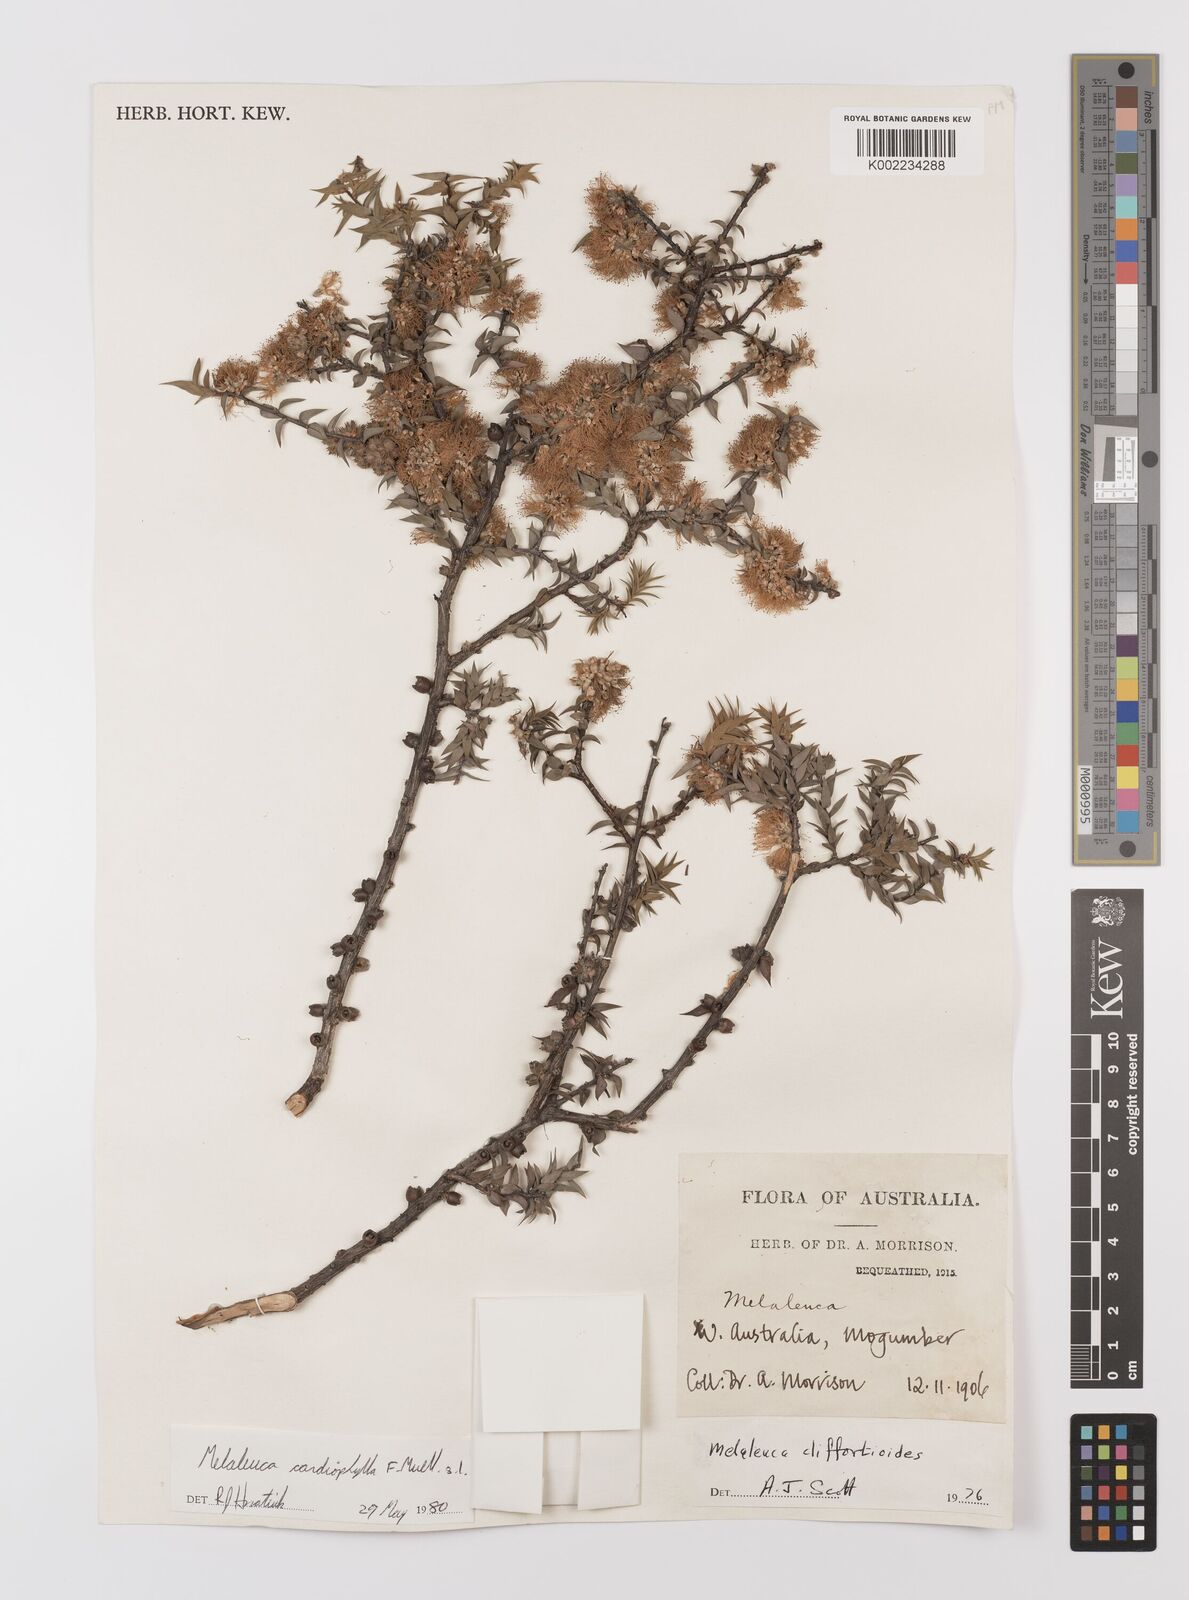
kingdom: Plantae
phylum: Tracheophyta
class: Magnoliopsida
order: Myrtales
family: Myrtaceae
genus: Melaleuca
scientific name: Melaleuca cardiophylla
